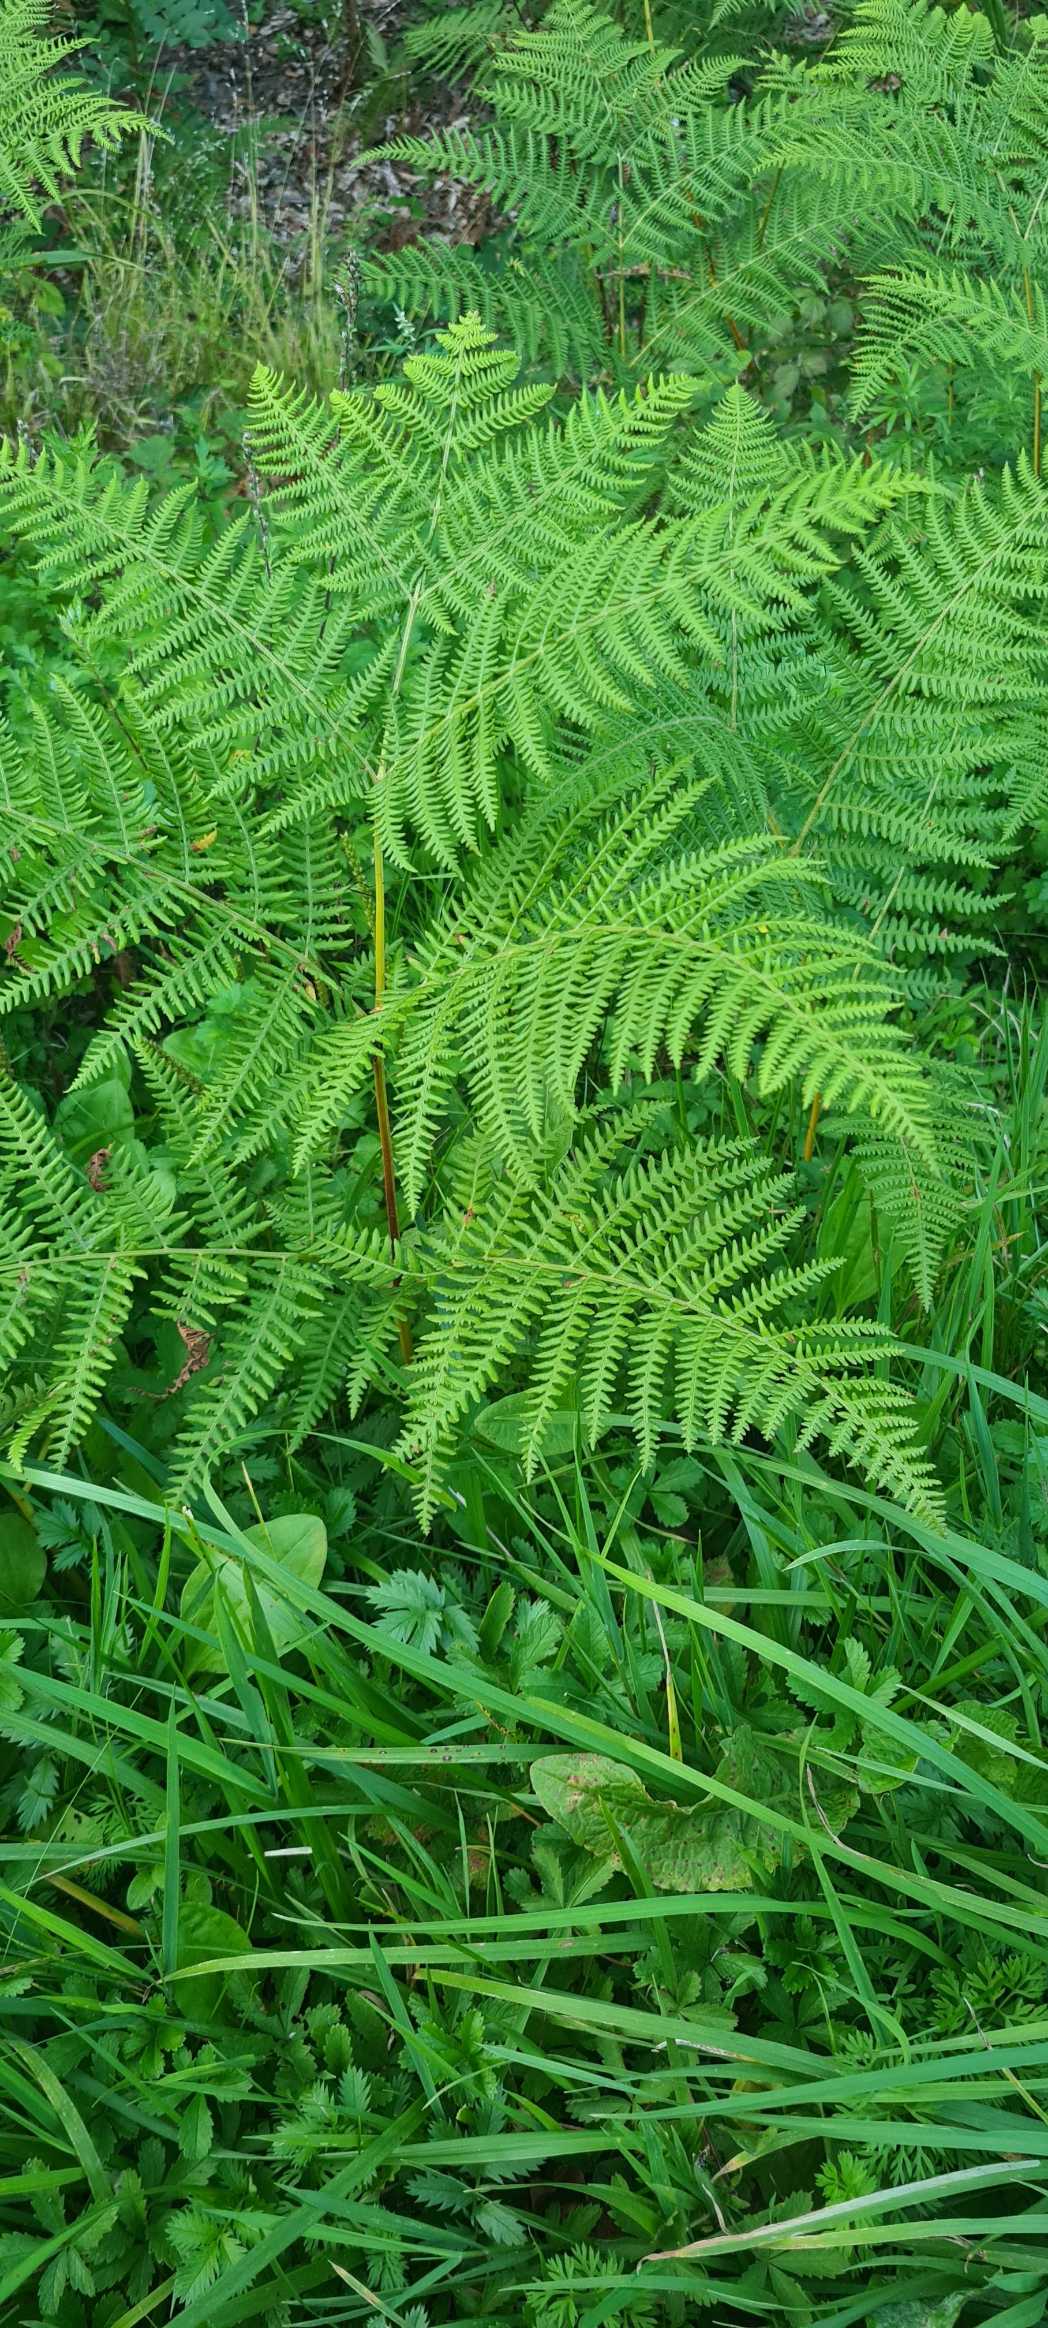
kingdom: Plantae
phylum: Tracheophyta
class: Polypodiopsida
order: Polypodiales
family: Dennstaedtiaceae
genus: Pteridium
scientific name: Pteridium aquilinum
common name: Ørnebregne
